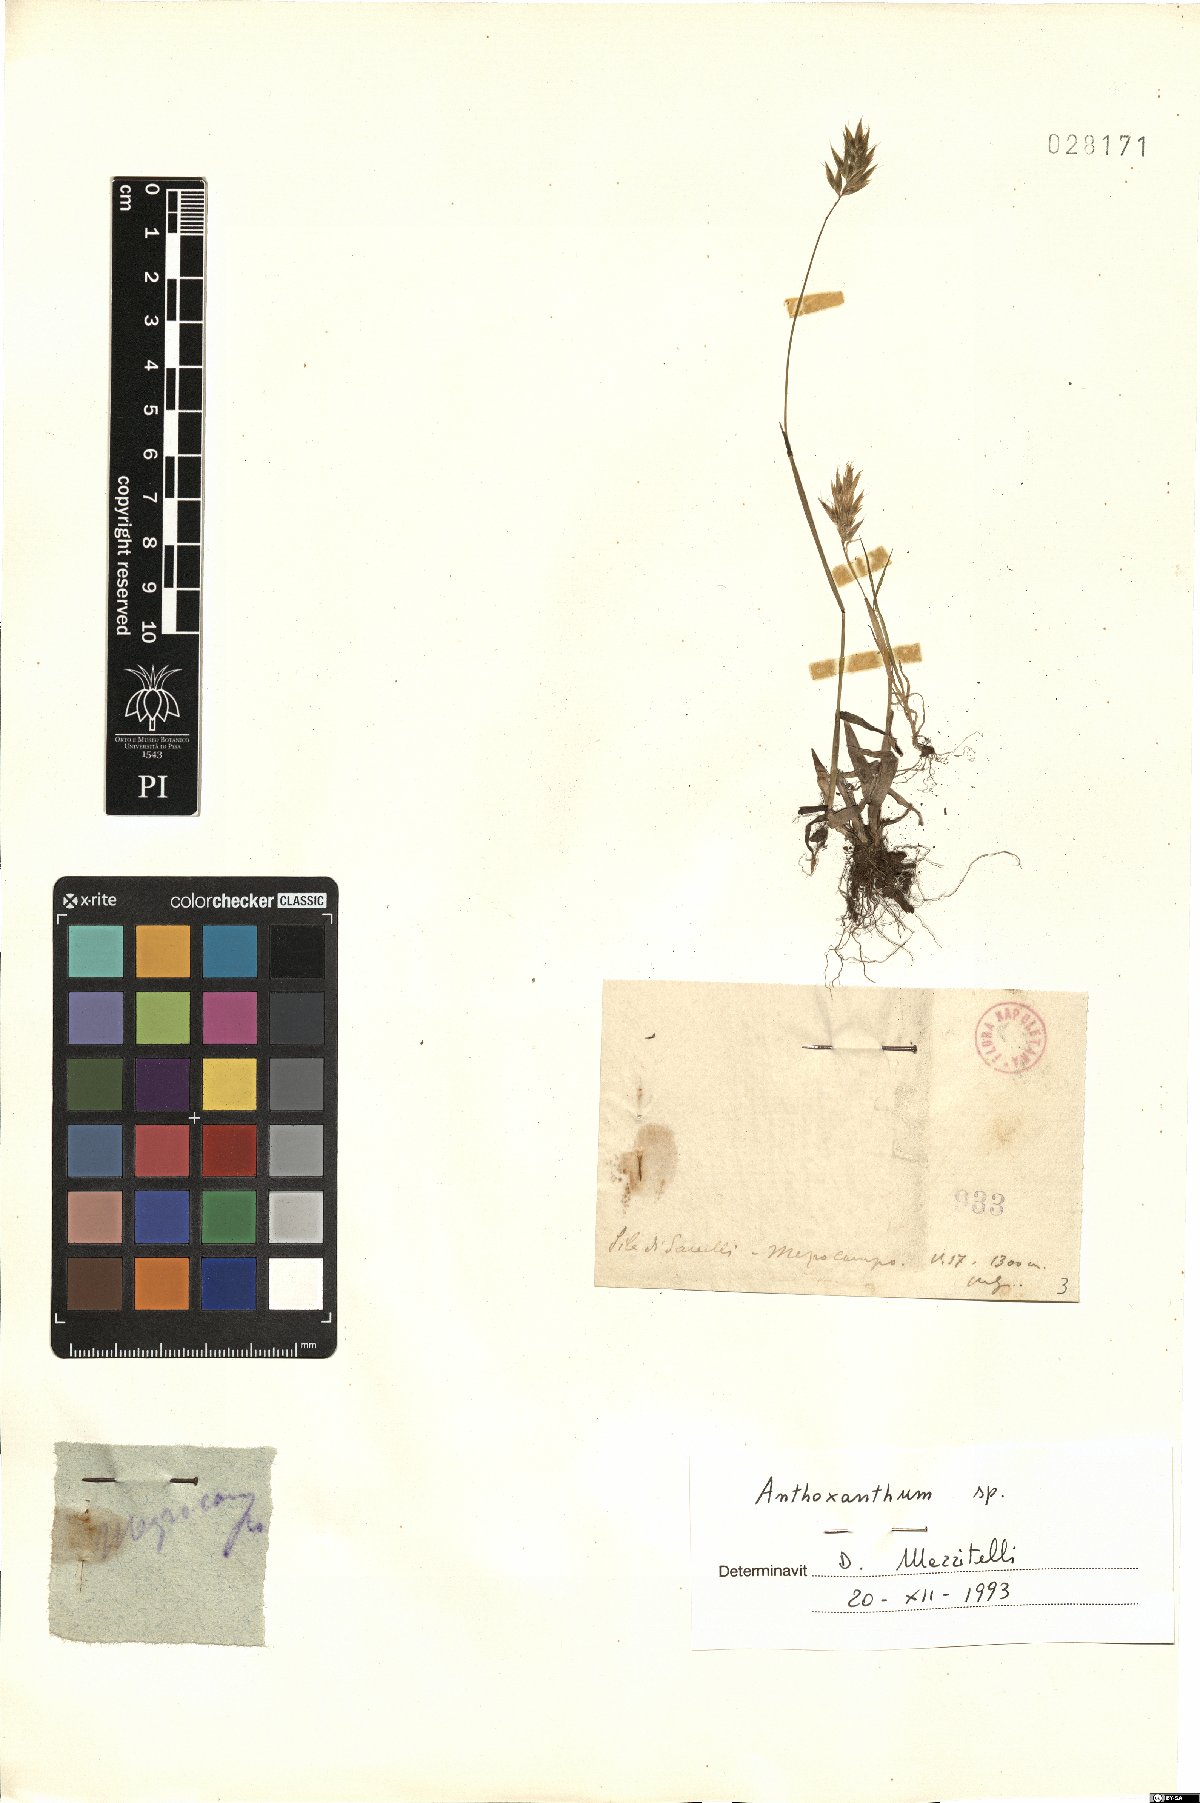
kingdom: Plantae
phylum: Tracheophyta
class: Liliopsida
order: Poales
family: Poaceae
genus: Anthoxanthum
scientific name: Anthoxanthum
